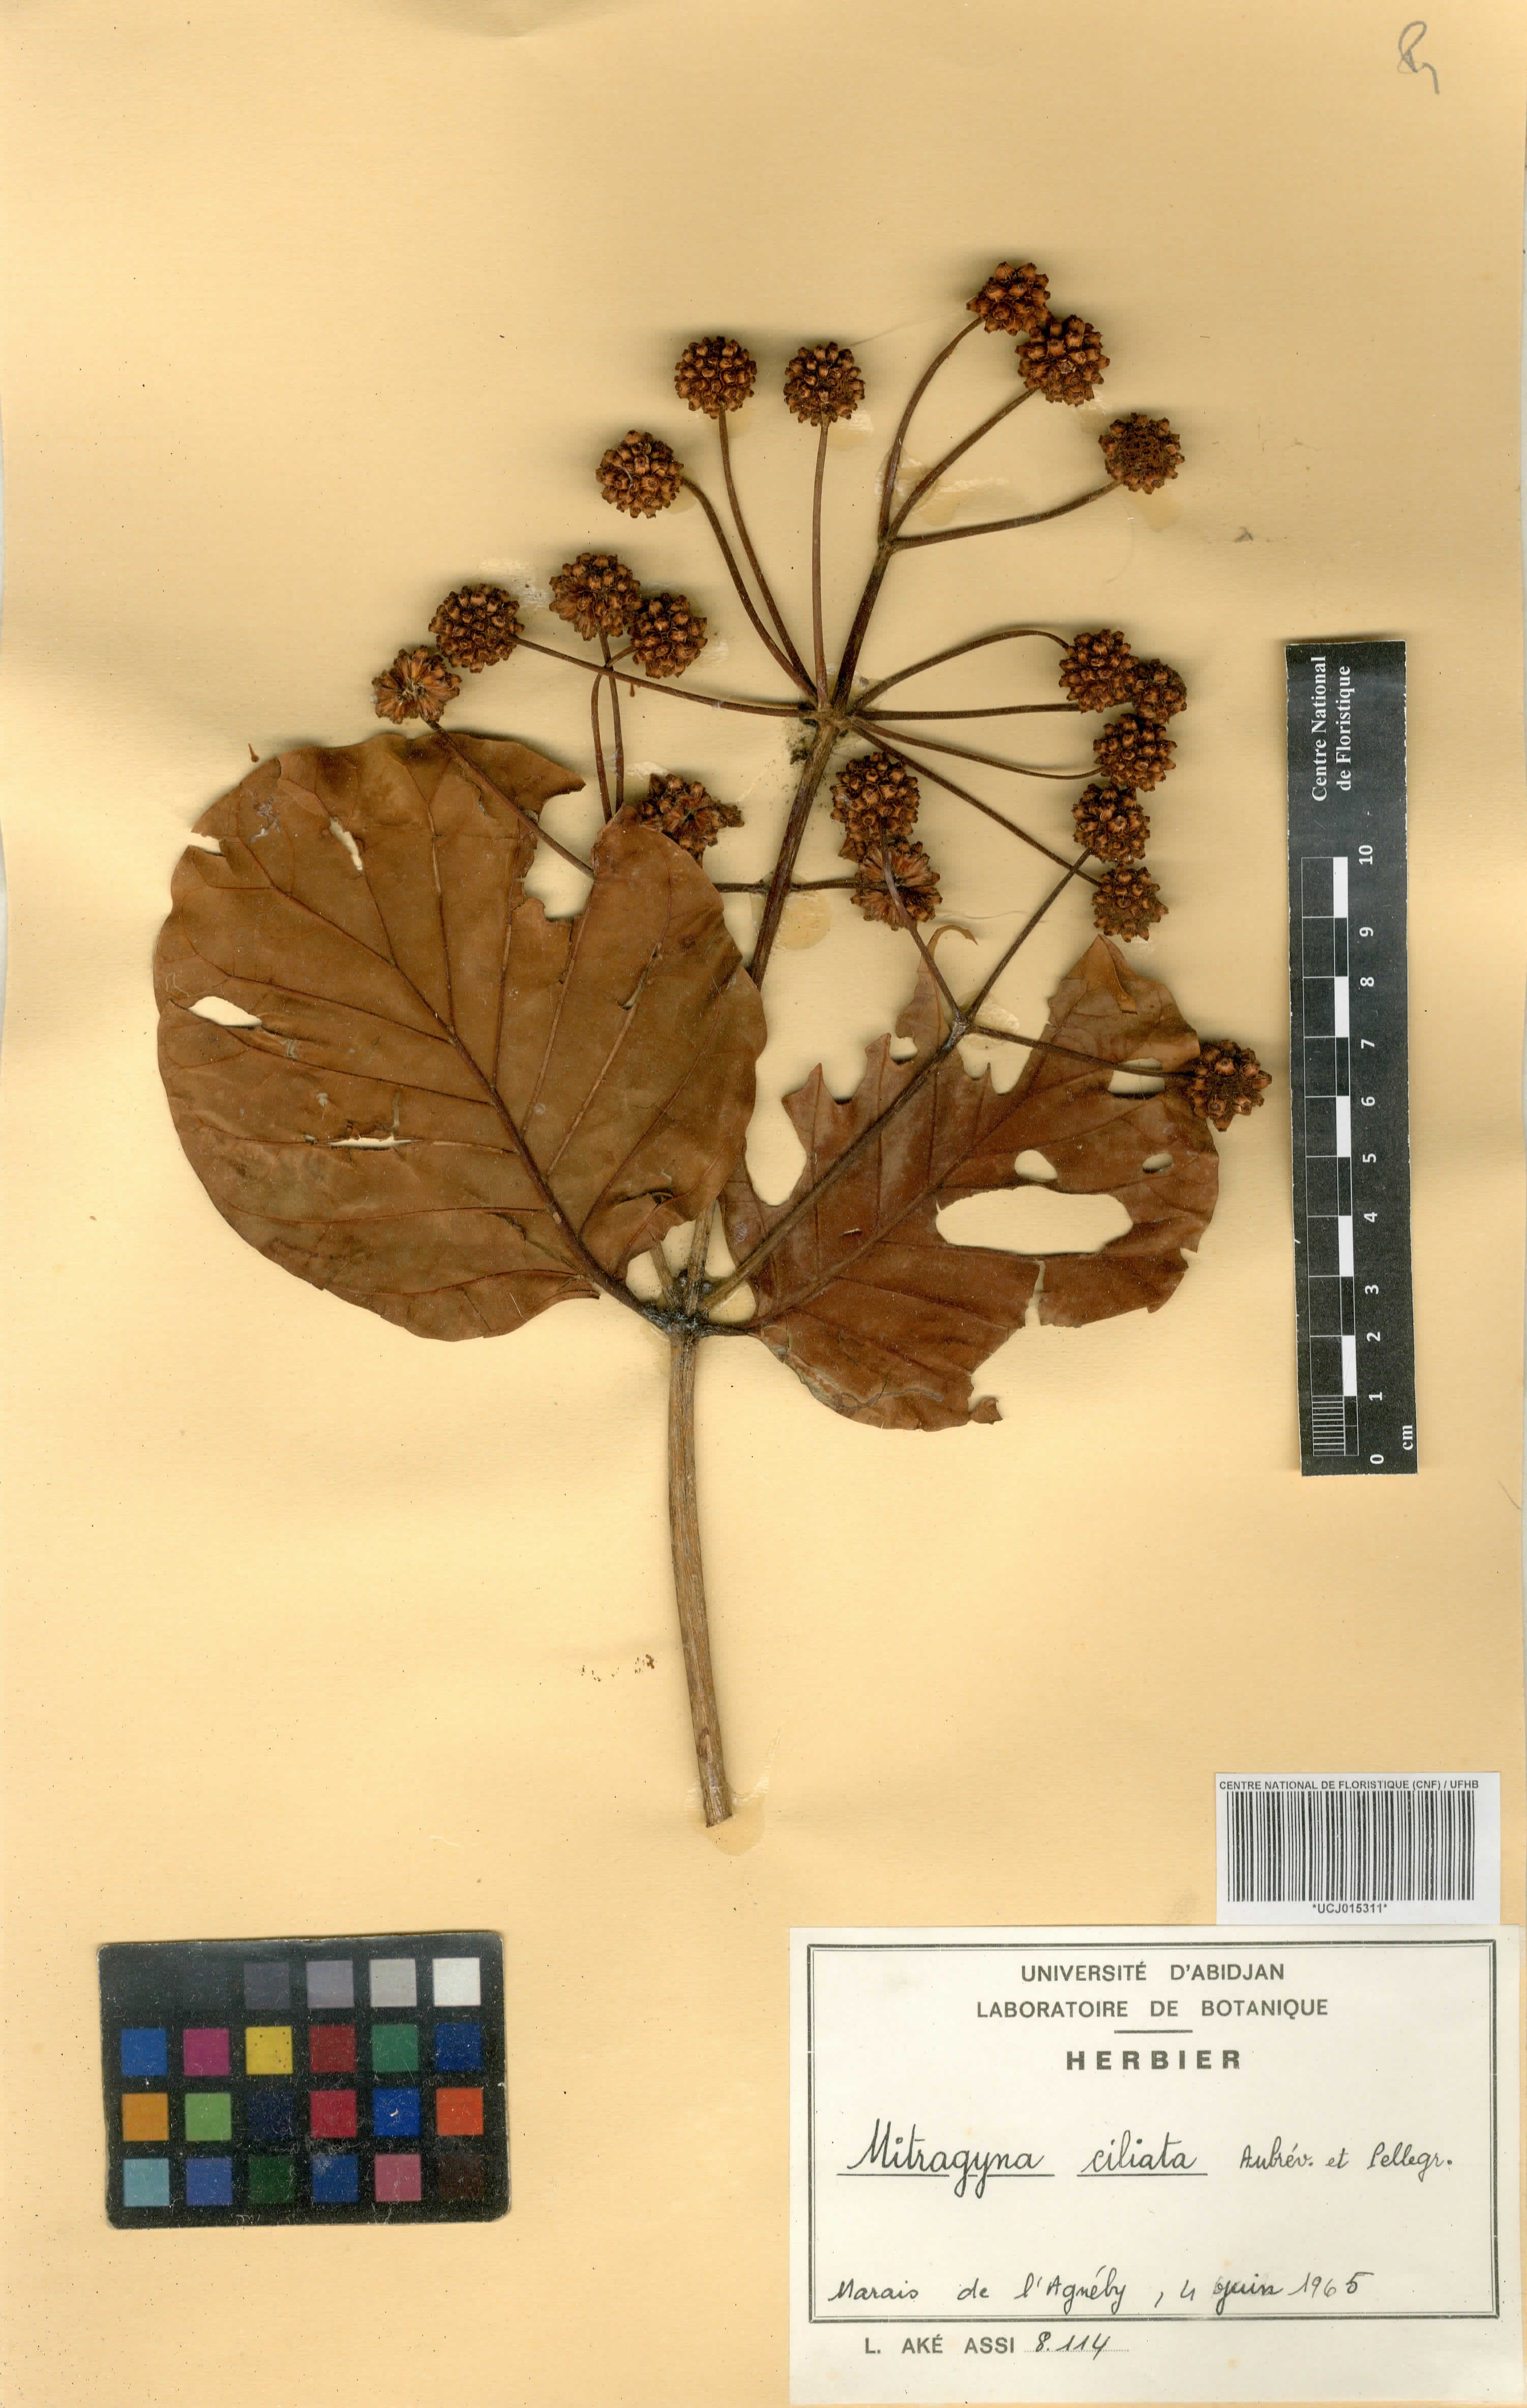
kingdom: Plantae
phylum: Tracheophyta
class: Magnoliopsida
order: Gentianales
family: Rubiaceae
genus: Mitragyna
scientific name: Mitragyna ciliata
